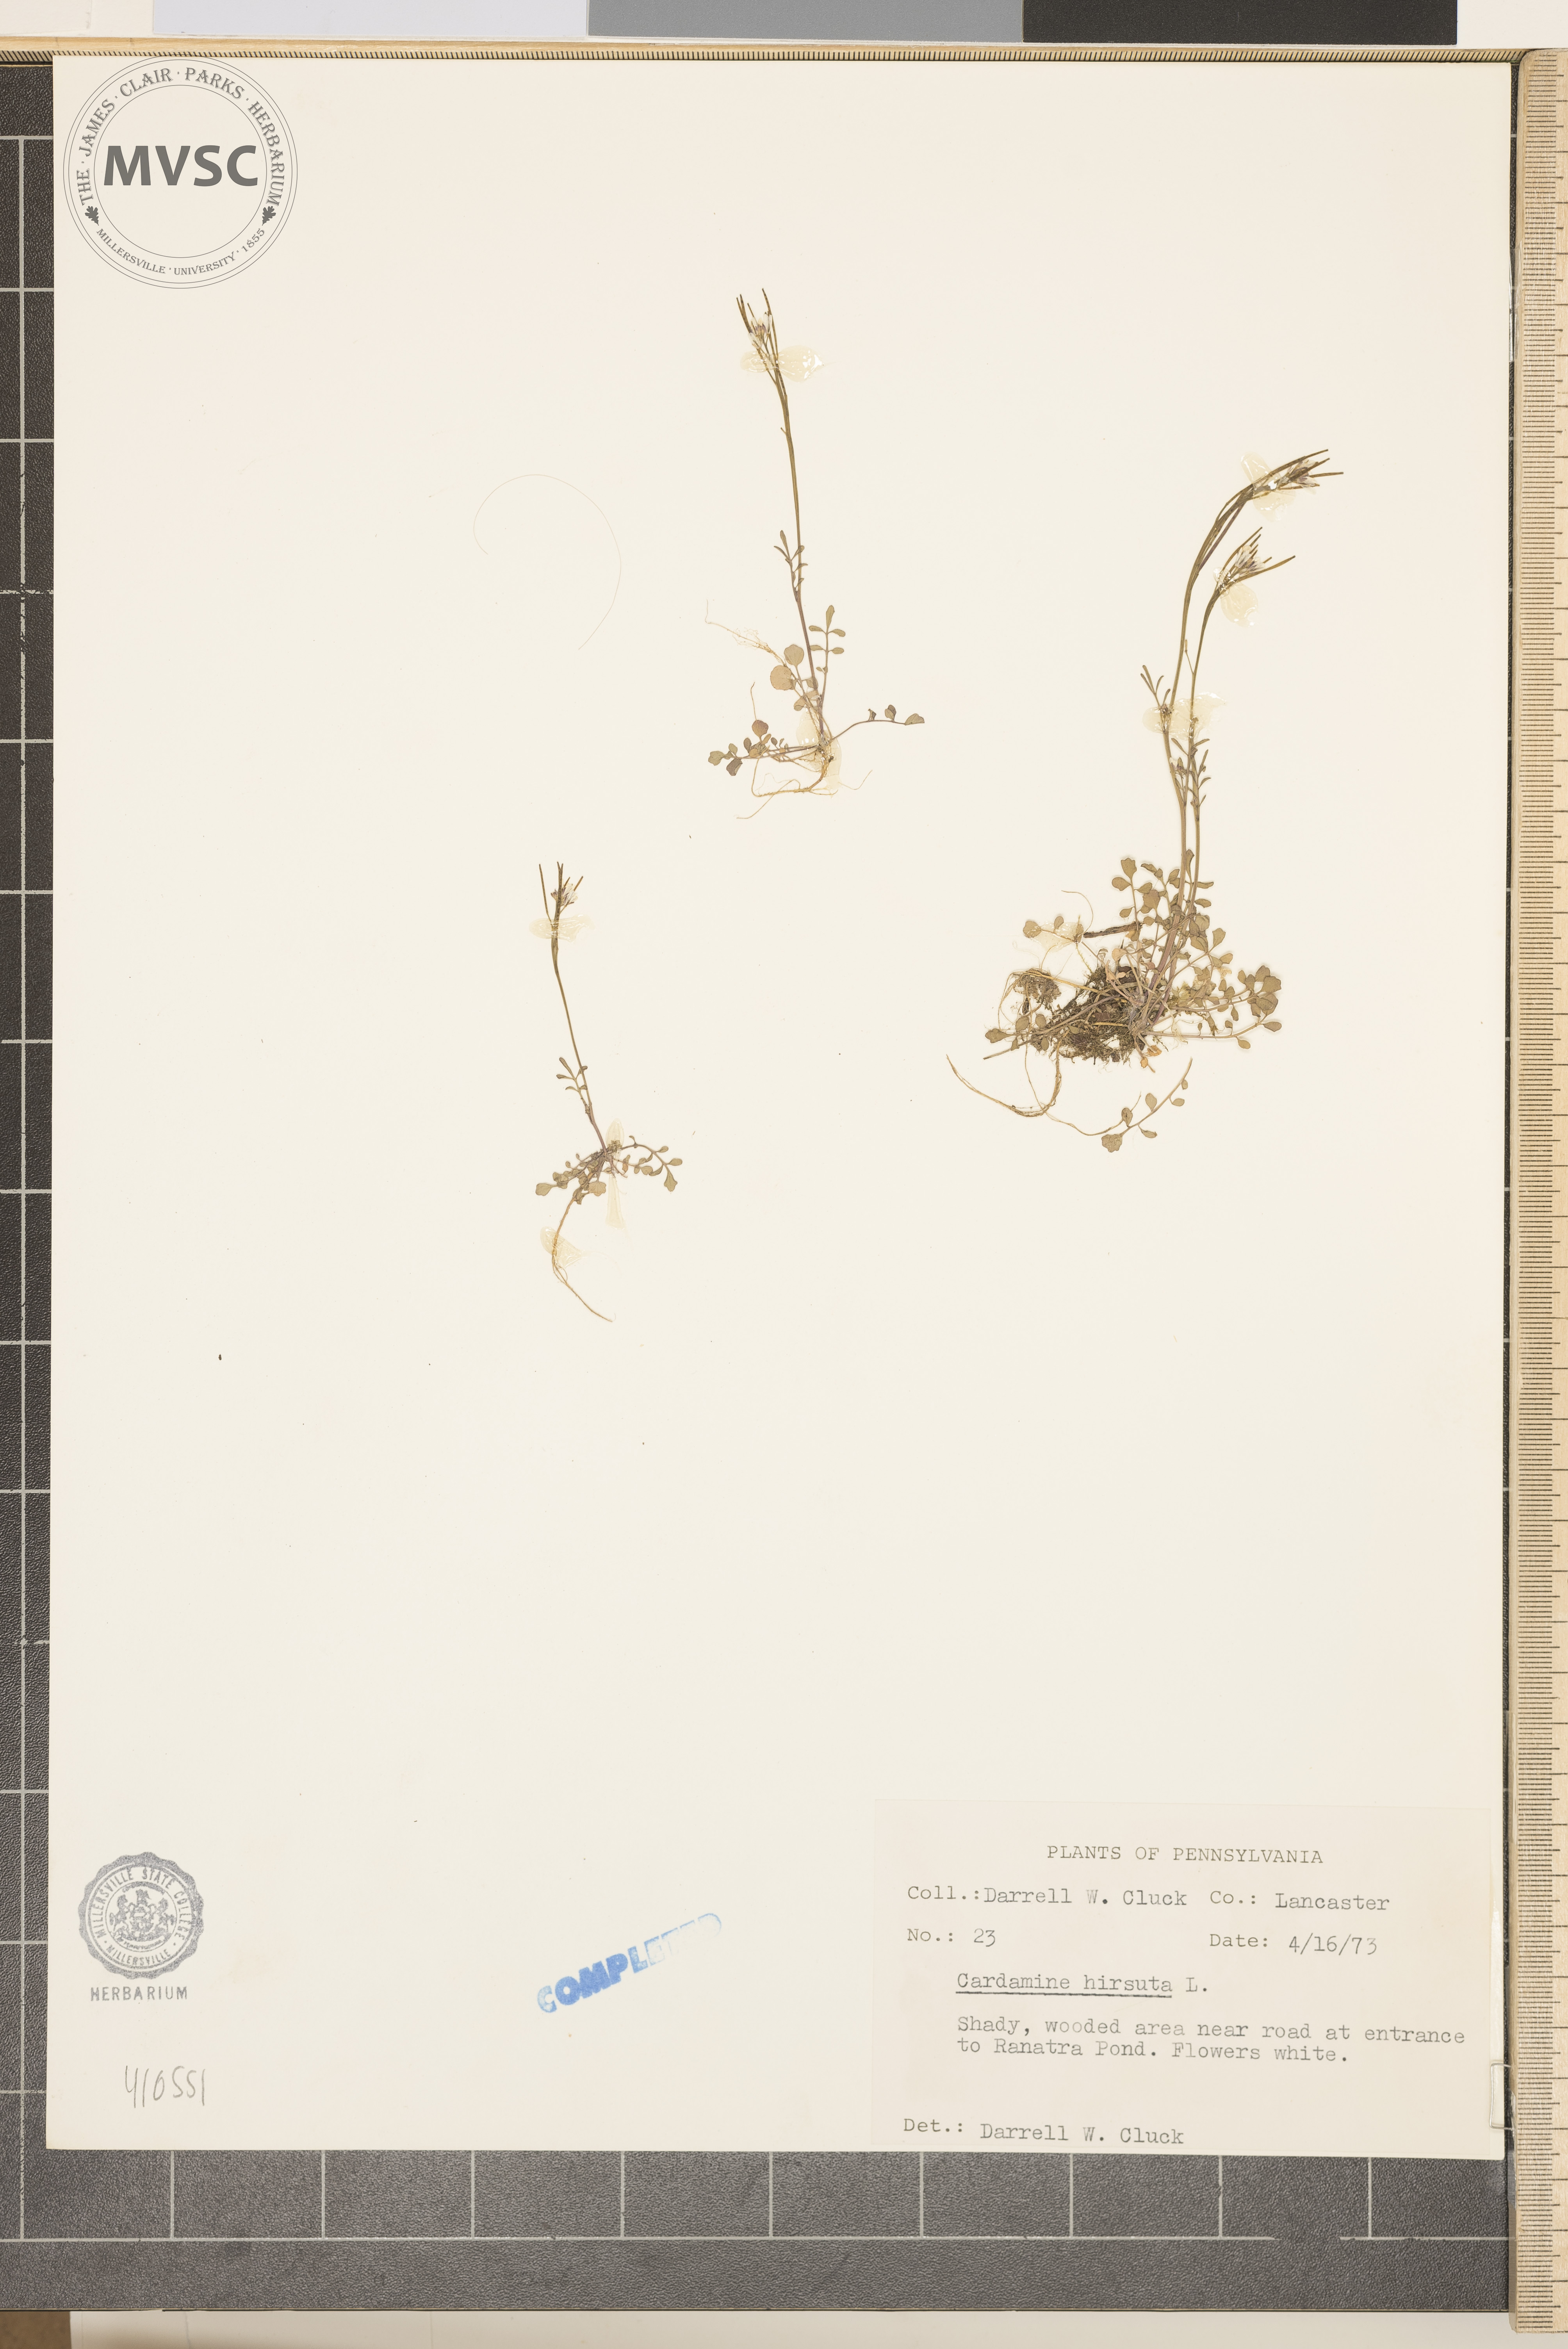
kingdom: Plantae
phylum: Tracheophyta
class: Magnoliopsida
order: Brassicales
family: Brassicaceae
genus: Cardamine
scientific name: Cardamine hirsuta
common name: hairy bittercress
